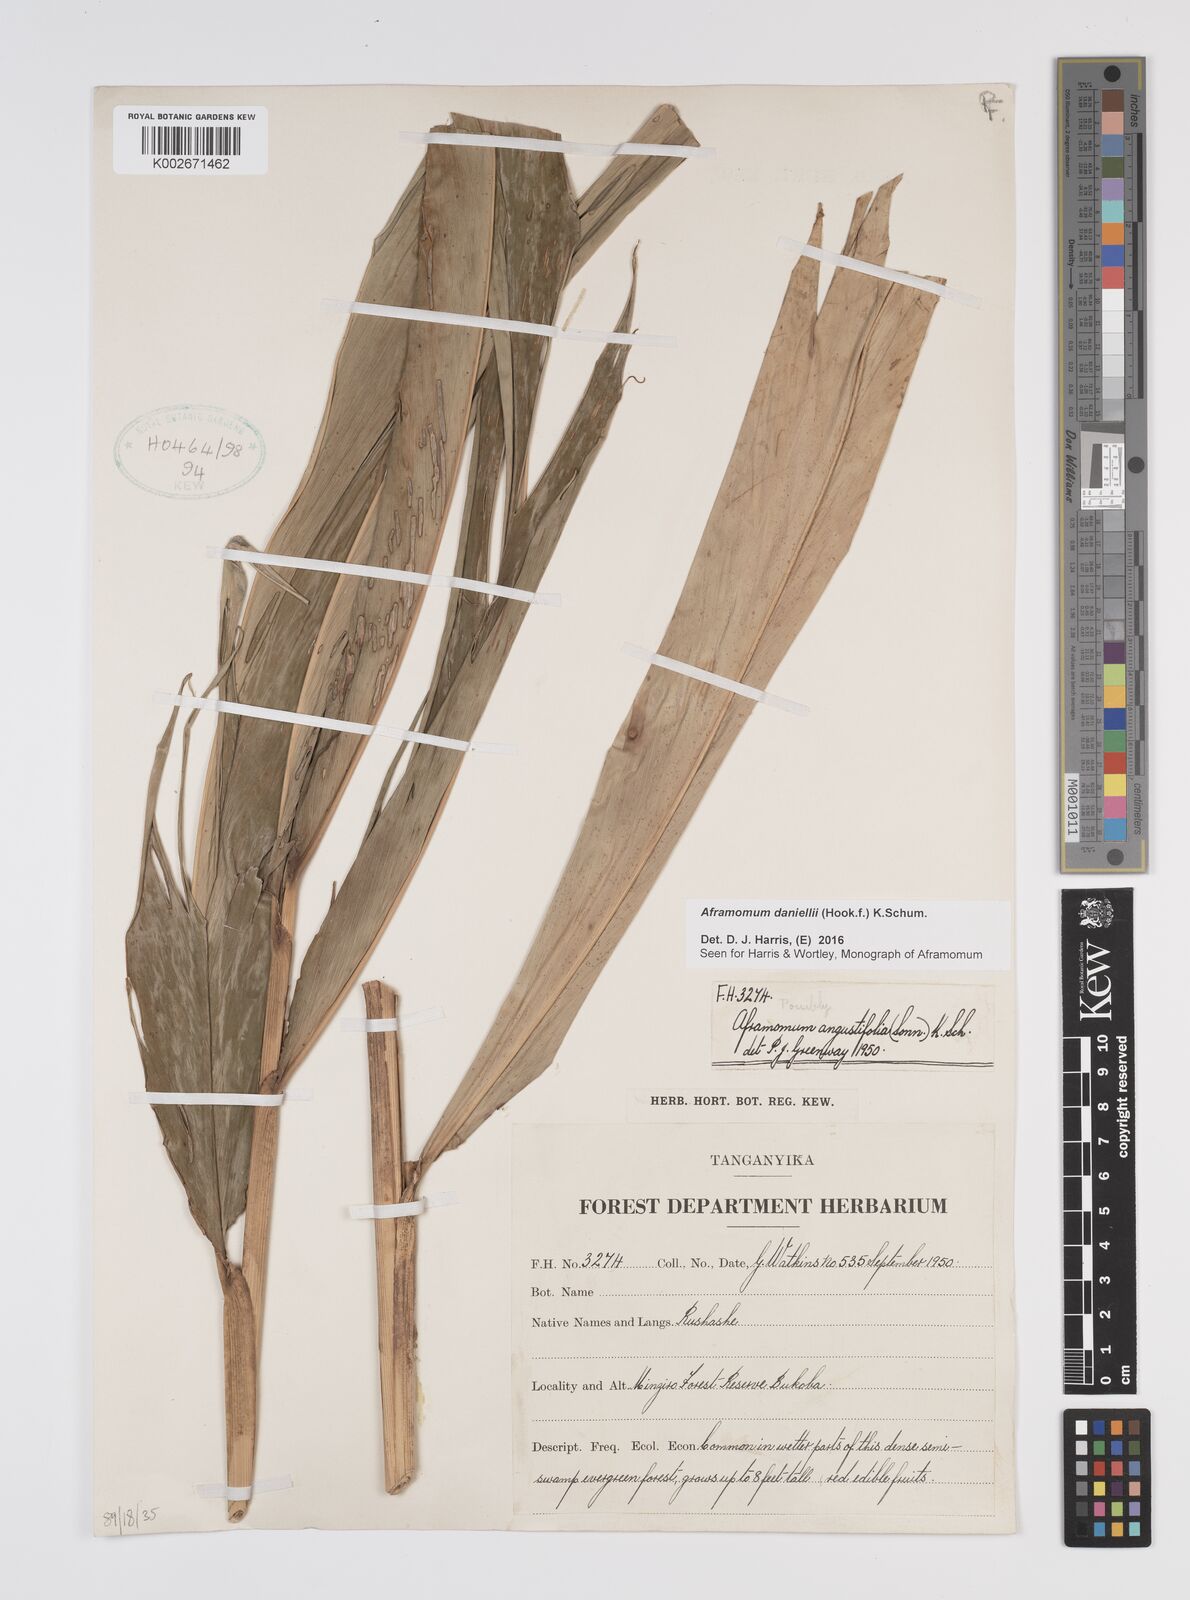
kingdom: Plantae
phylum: Tracheophyta
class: Liliopsida
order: Zingiberales
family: Zingiberaceae
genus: Aframomum
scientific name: Aframomum daniellii
